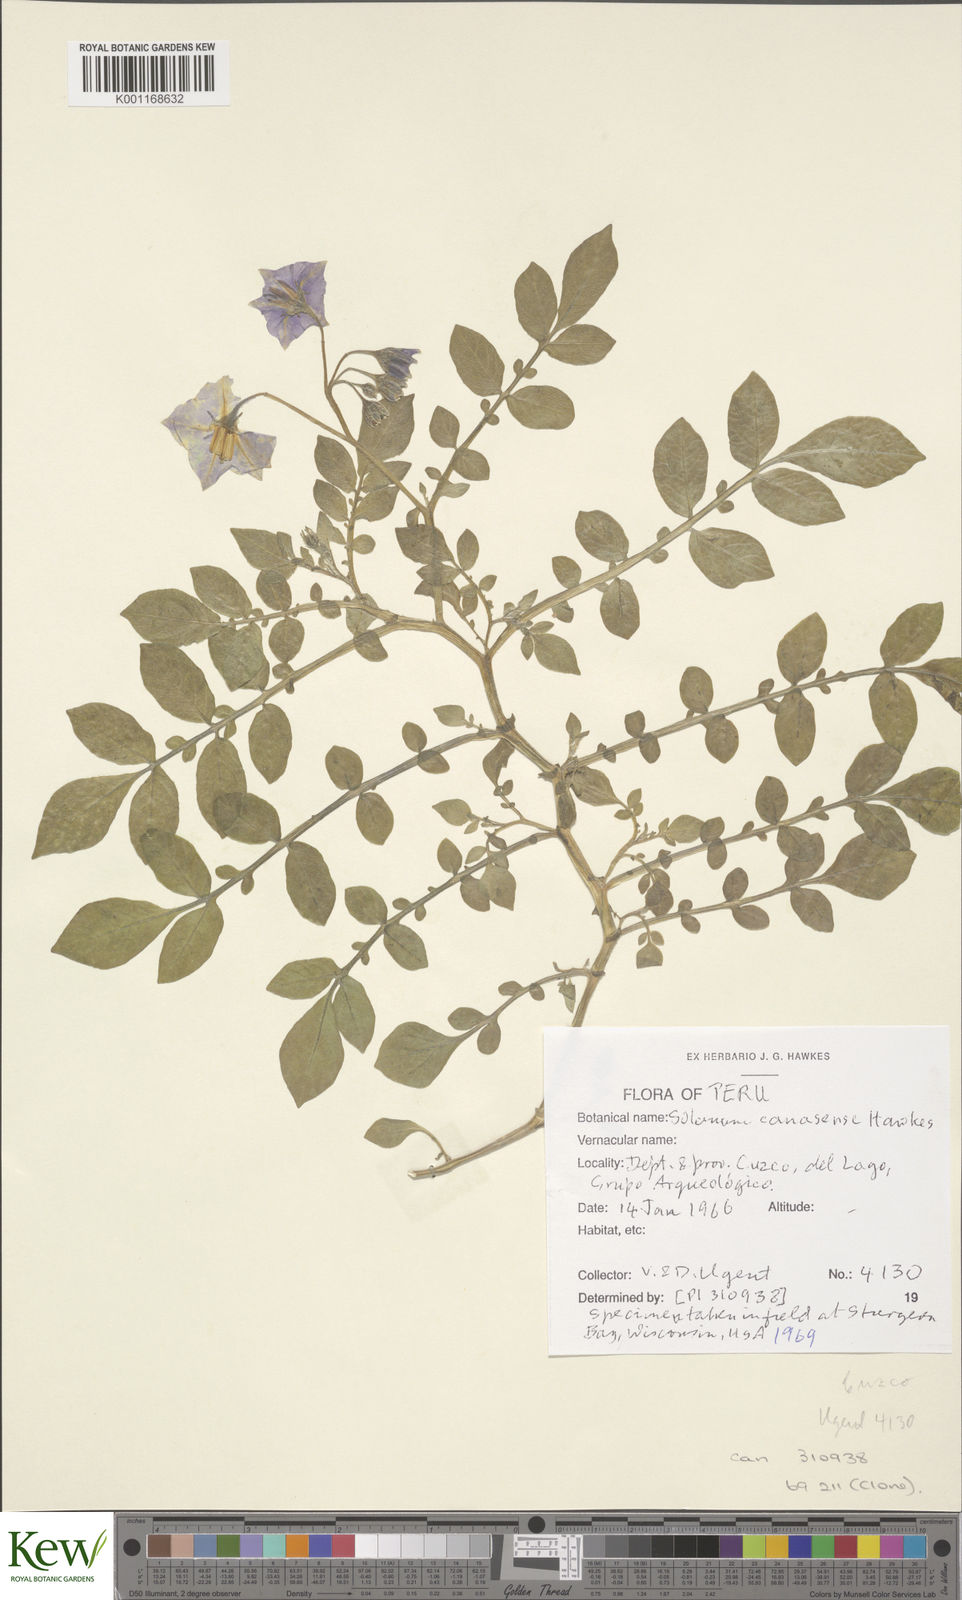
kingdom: Plantae
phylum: Tracheophyta
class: Magnoliopsida
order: Solanales
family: Solanaceae
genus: Solanum
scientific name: Solanum candolleanum
